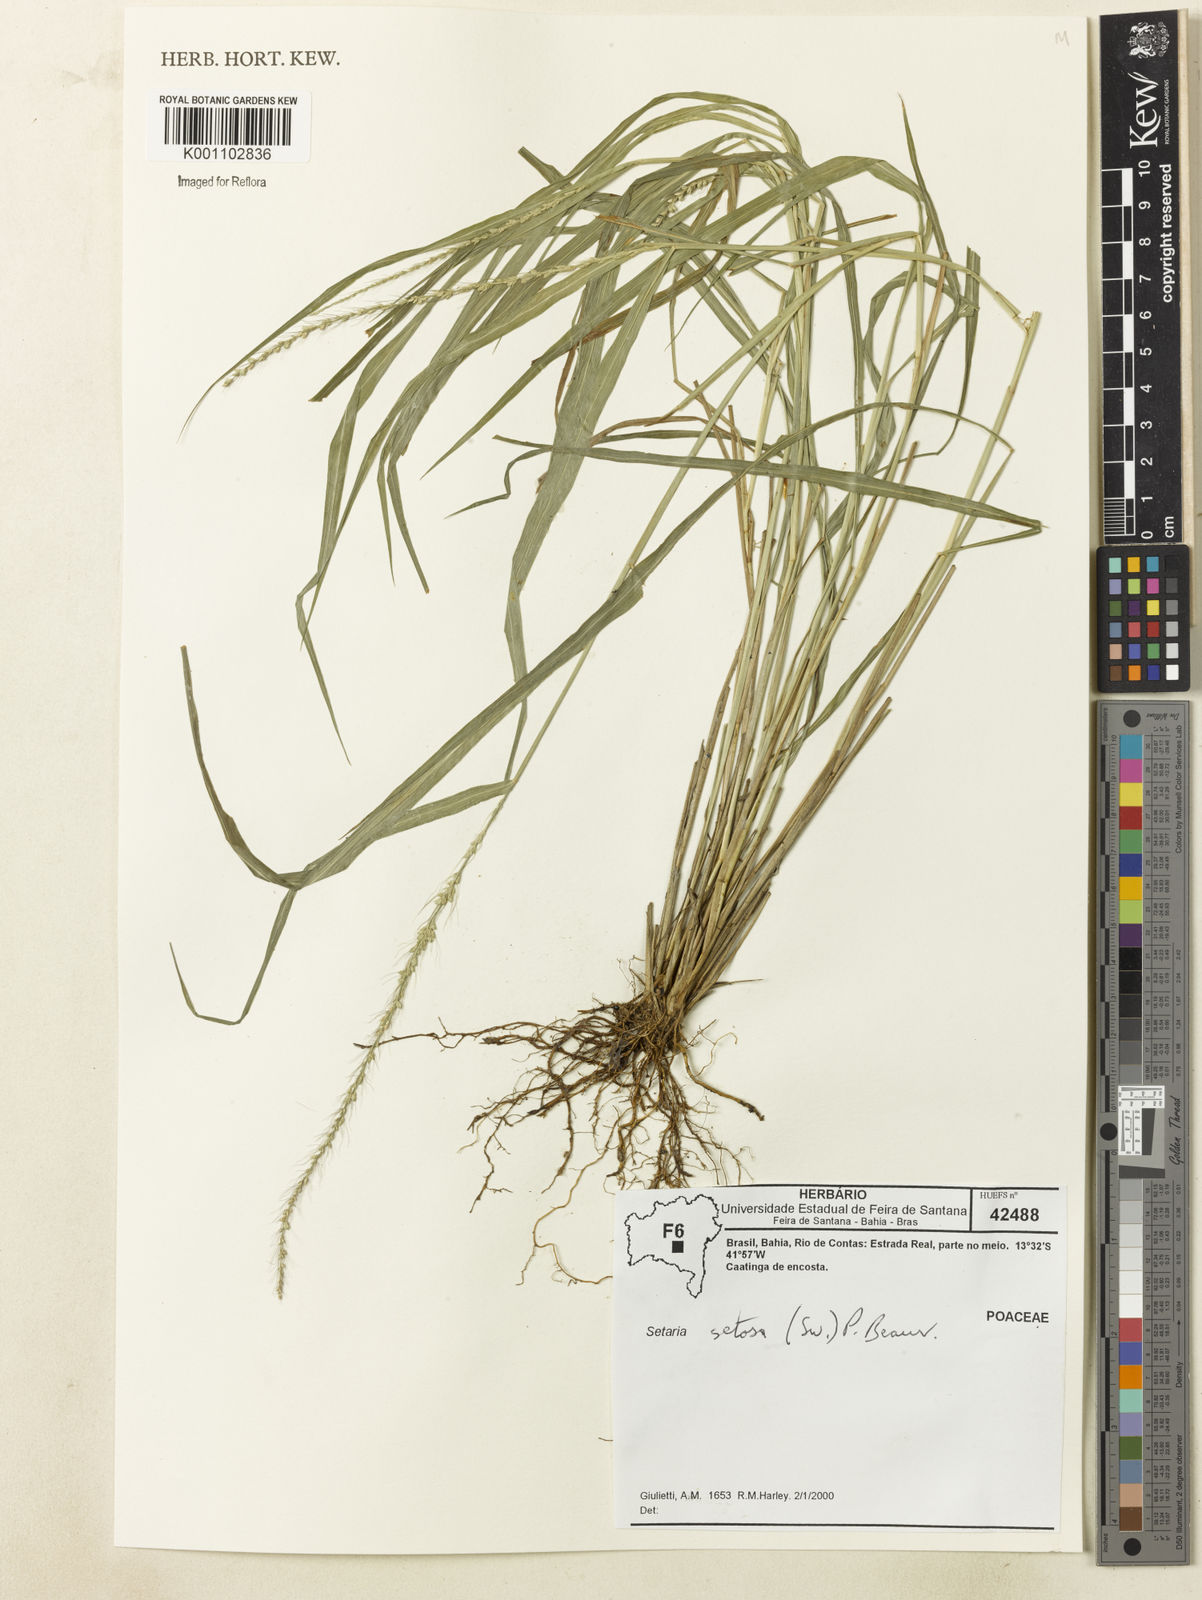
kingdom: Plantae
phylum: Tracheophyta
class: Liliopsida
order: Poales
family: Poaceae
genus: Setaria
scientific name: Setaria setosa
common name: West indies bristle grass
